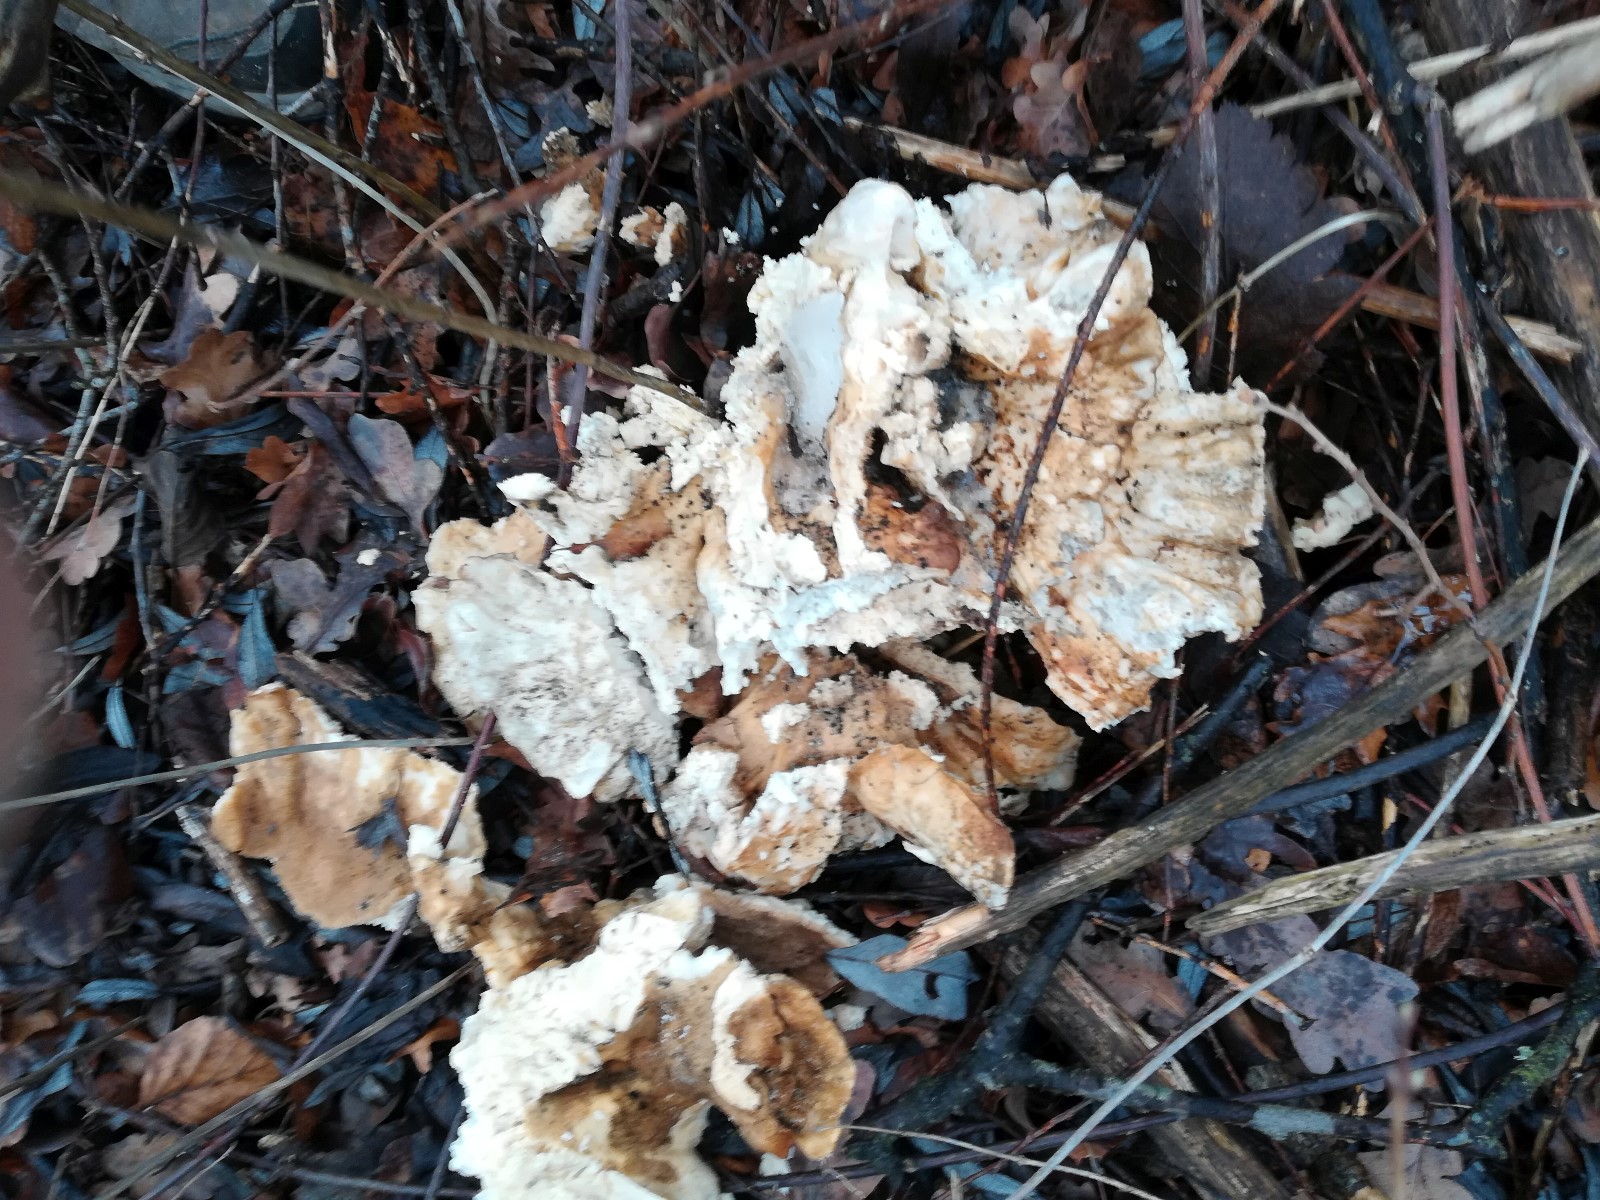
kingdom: Fungi
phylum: Basidiomycota
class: Agaricomycetes
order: Polyporales
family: Laetiporaceae
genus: Laetiporus
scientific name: Laetiporus sulphureus
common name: svovlporesvamp
